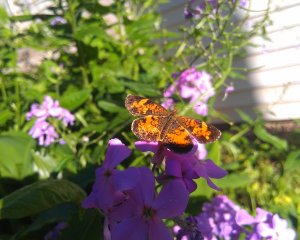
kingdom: Animalia
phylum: Arthropoda
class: Insecta
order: Lepidoptera
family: Nymphalidae
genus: Phyciodes
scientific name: Phyciodes tharos
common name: Northern Crescent
